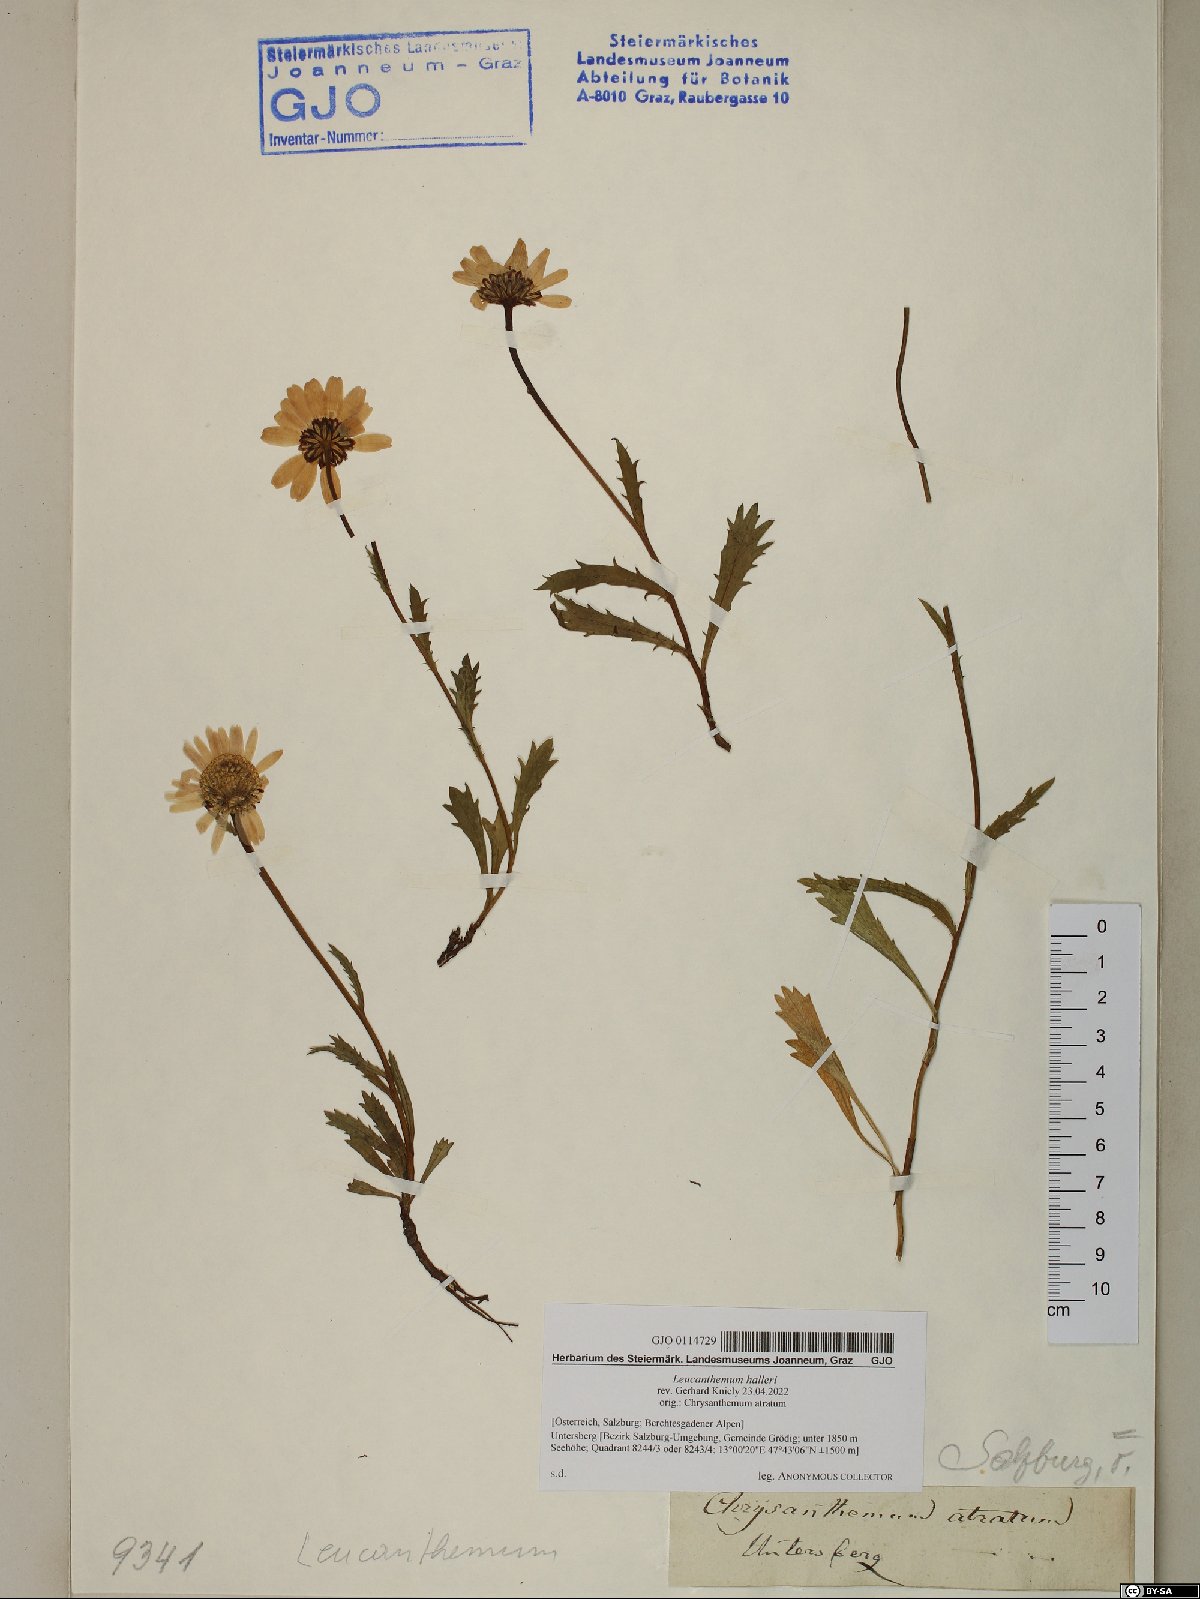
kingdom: Plantae
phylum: Tracheophyta
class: Magnoliopsida
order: Asterales
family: Asteraceae
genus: Leucanthemum
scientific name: Leucanthemum halleri
